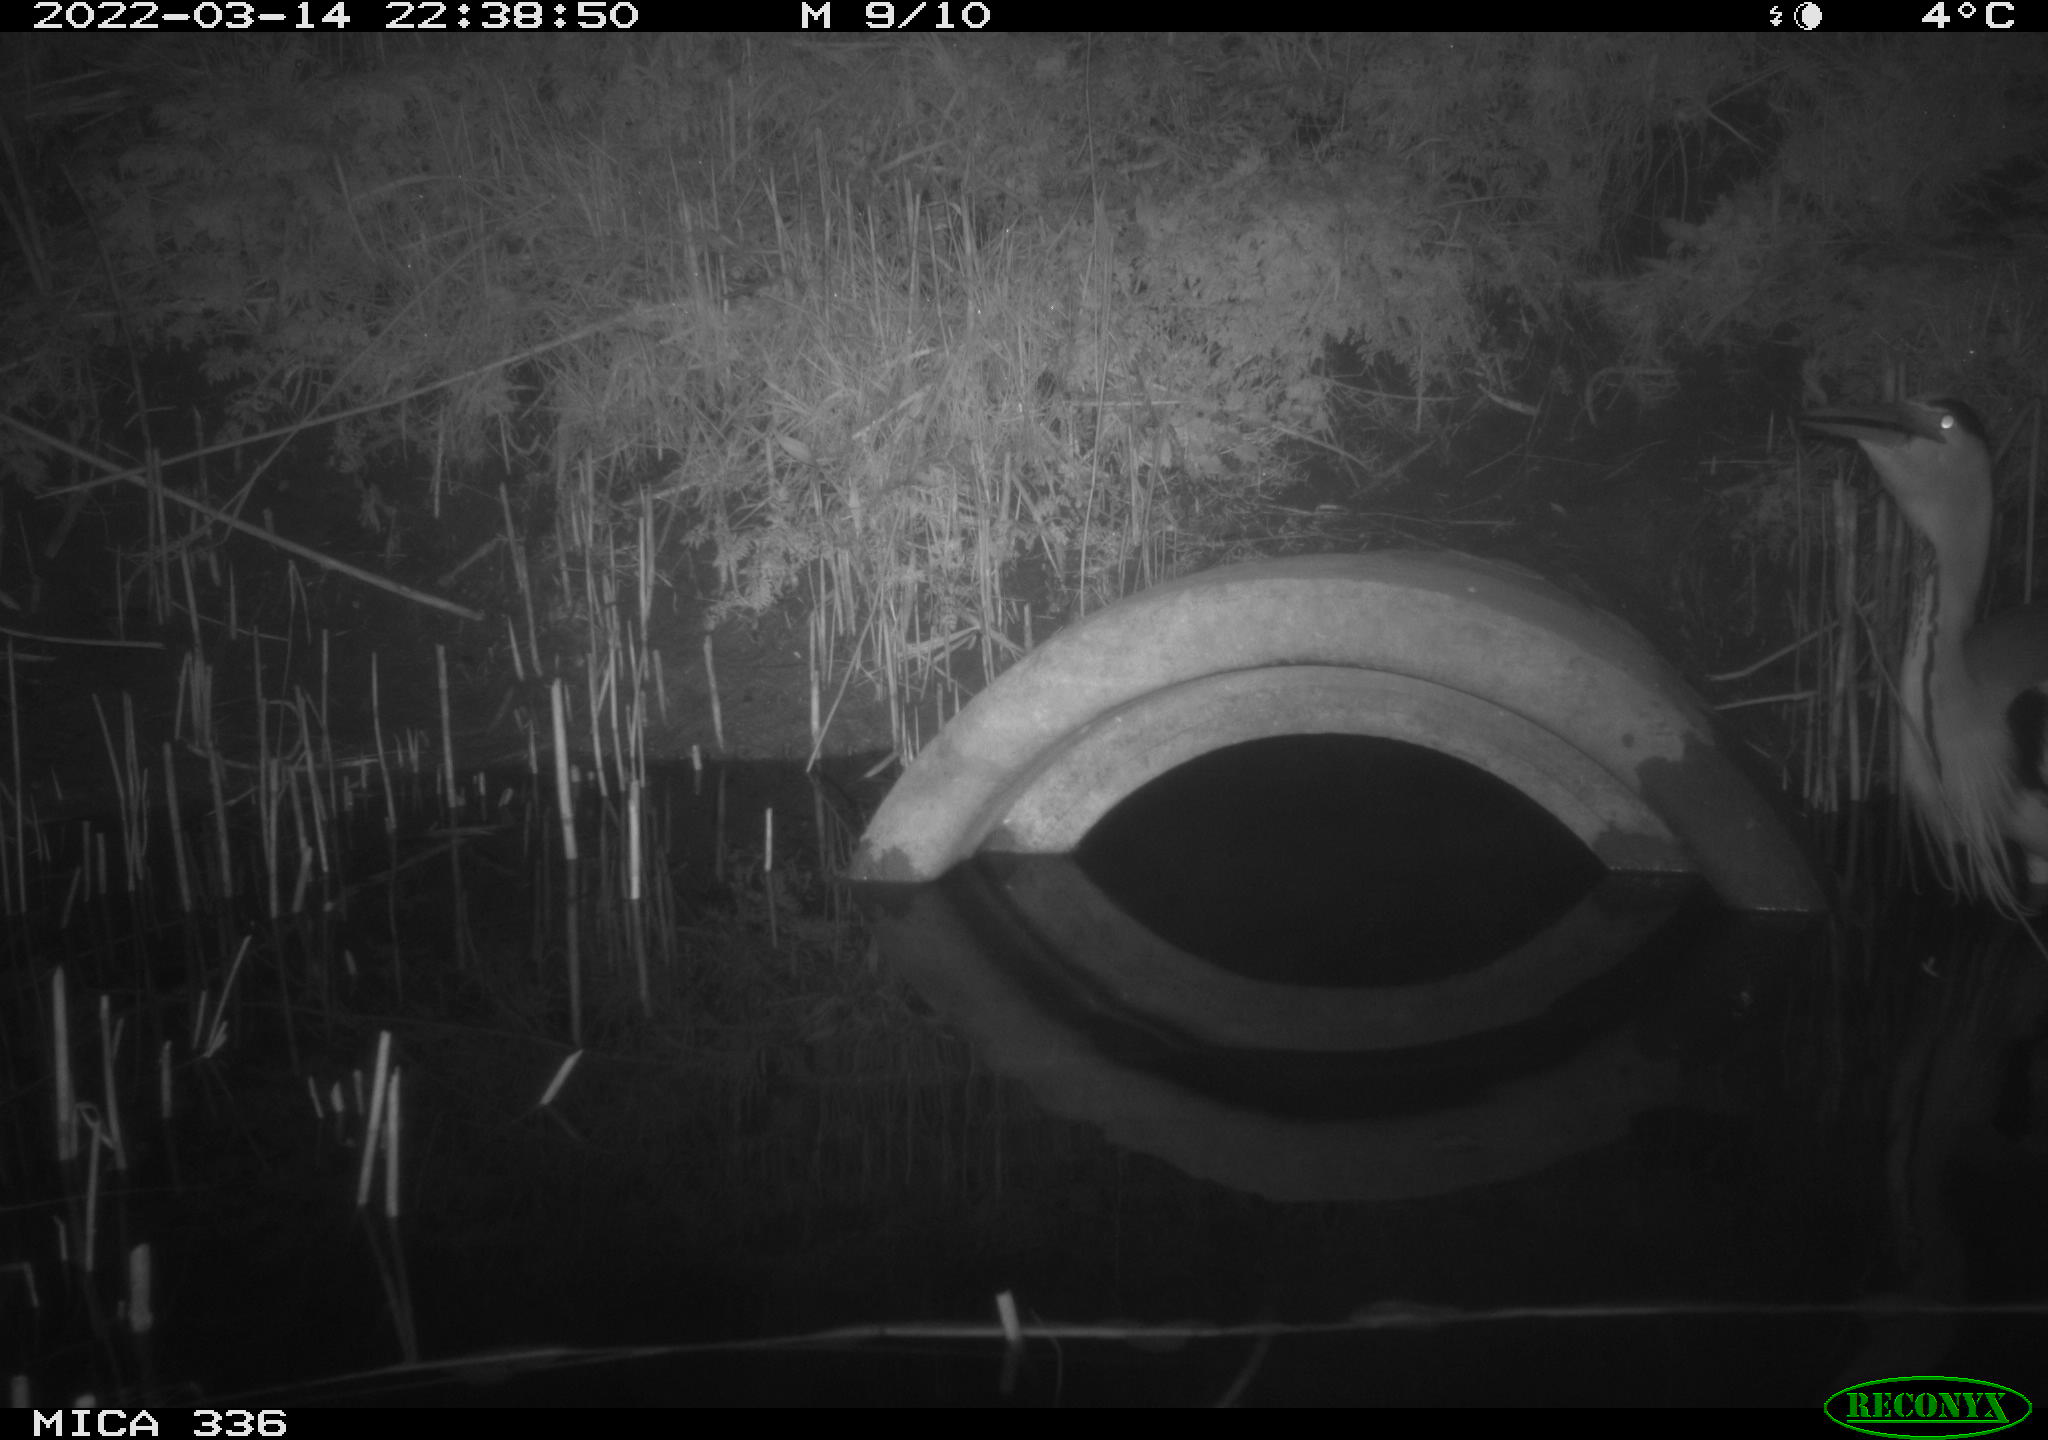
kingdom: Animalia
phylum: Chordata
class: Aves
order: Pelecaniformes
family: Ardeidae
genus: Ardea
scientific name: Ardea cinerea
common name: Grey heron
